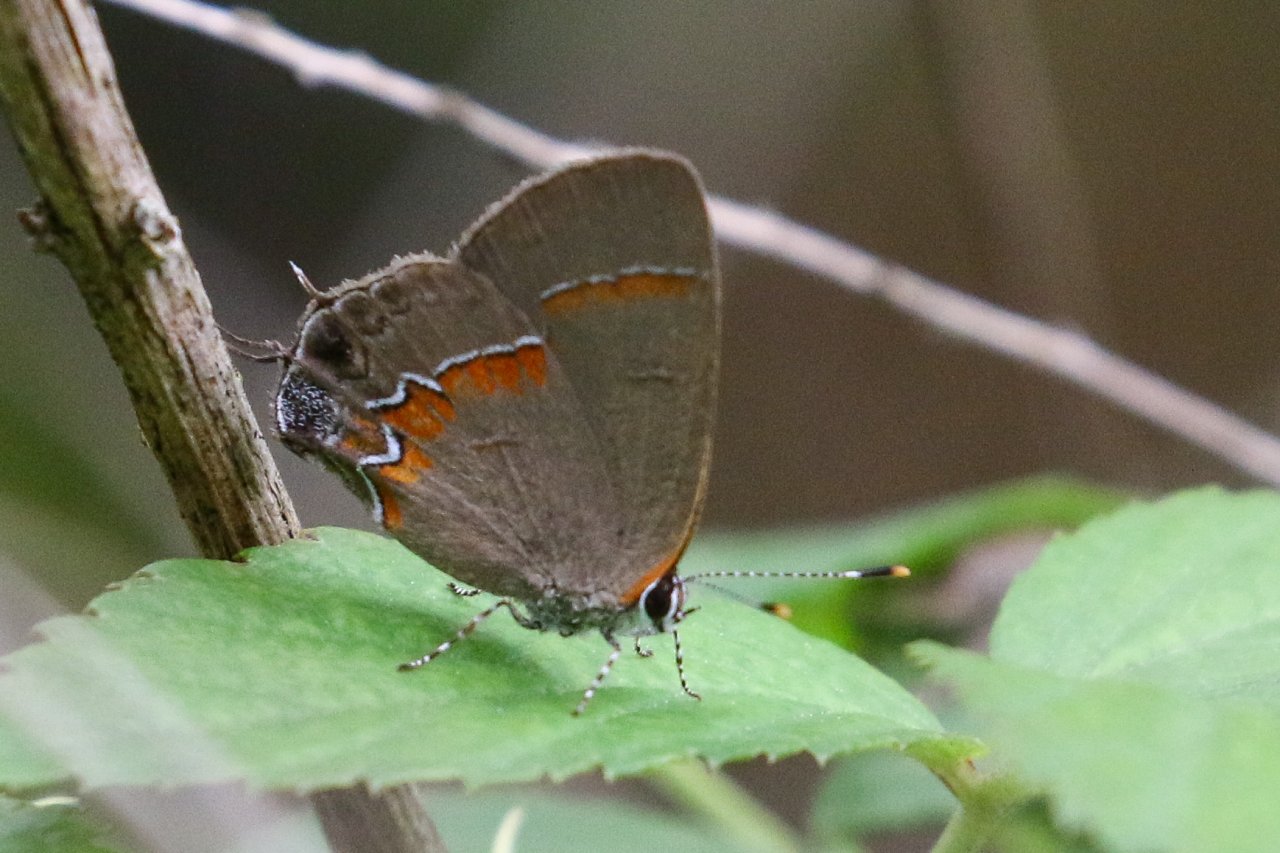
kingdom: Animalia
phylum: Arthropoda
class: Insecta
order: Lepidoptera
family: Lycaenidae
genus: Calycopis
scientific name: Calycopis cecrops
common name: Red-banded Hairstreak
